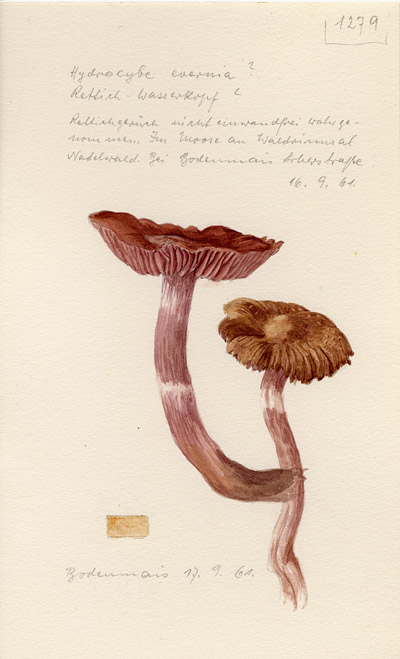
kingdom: Fungi
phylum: Basidiomycota
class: Agaricomycetes
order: Agaricales
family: Cortinariaceae
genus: Cortinarius
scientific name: Cortinarius evernius
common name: Silky webcap
